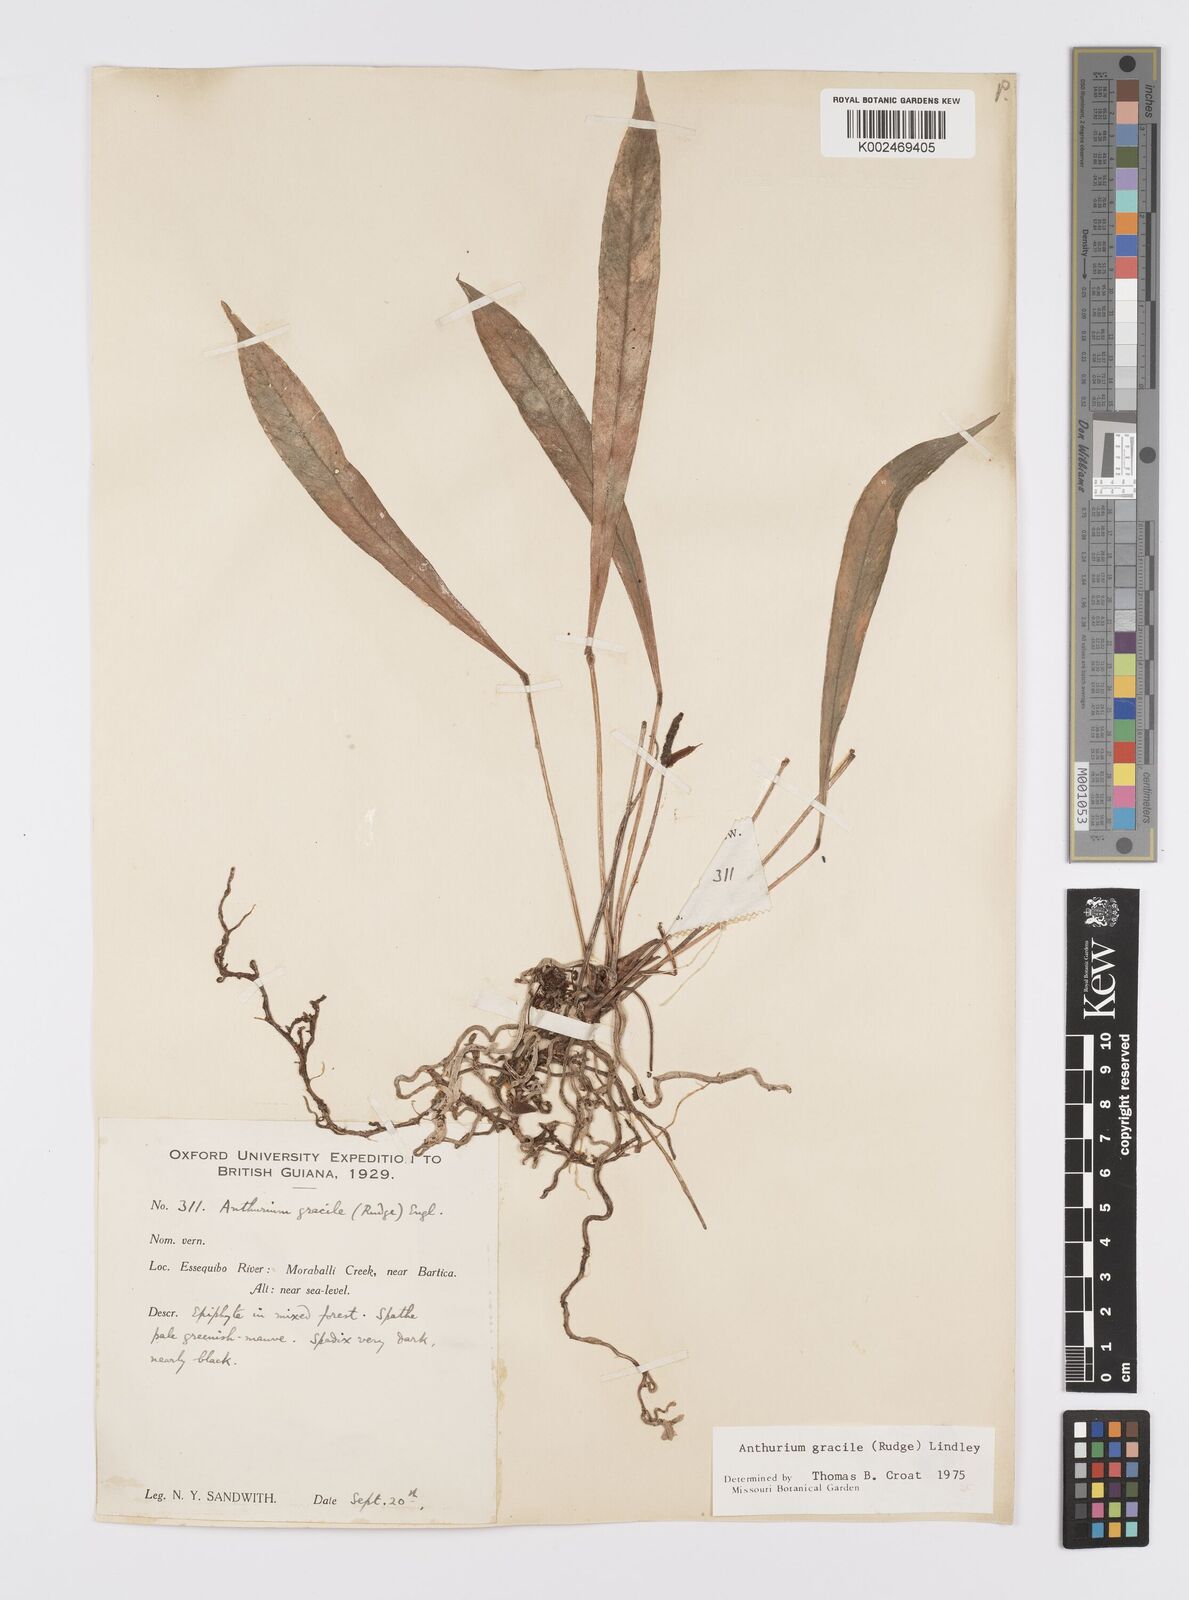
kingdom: Plantae
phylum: Tracheophyta
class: Liliopsida
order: Alismatales
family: Araceae
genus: Anthurium
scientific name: Anthurium gracile
